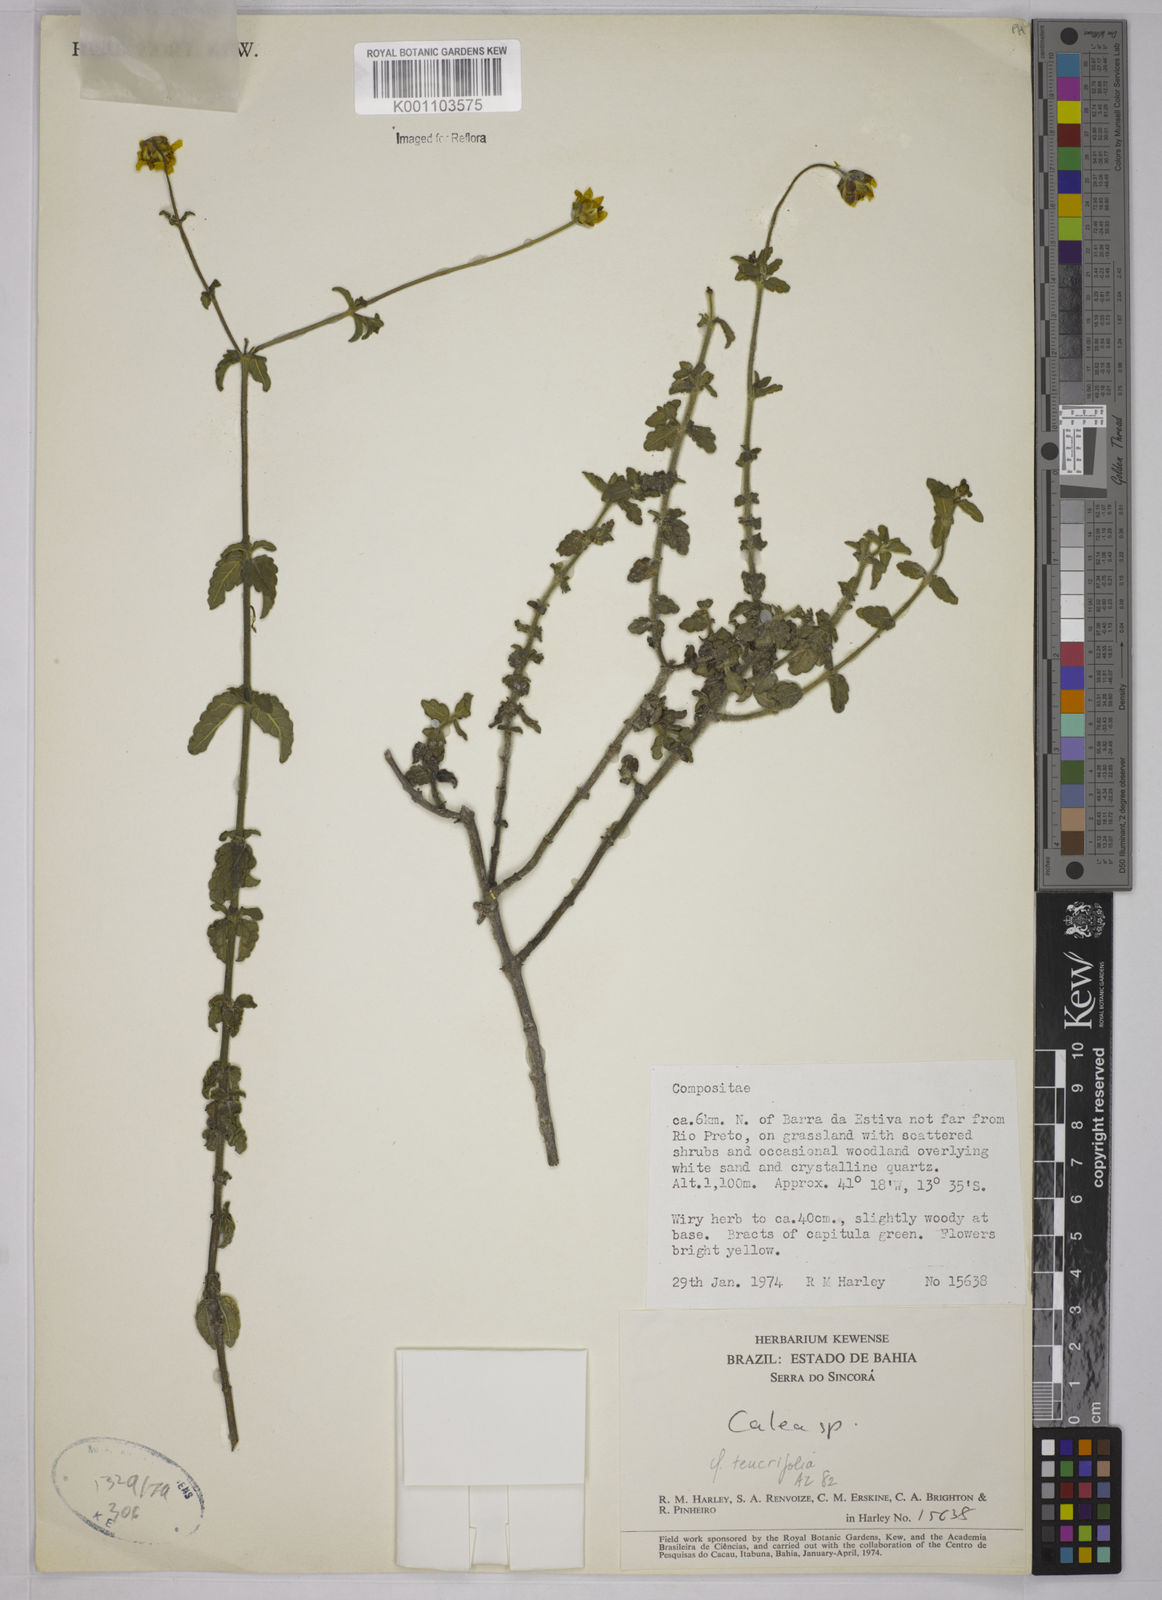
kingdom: Plantae
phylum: Tracheophyta
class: Magnoliopsida
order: Asterales
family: Asteraceae
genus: Calea
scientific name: Calea candolleana
